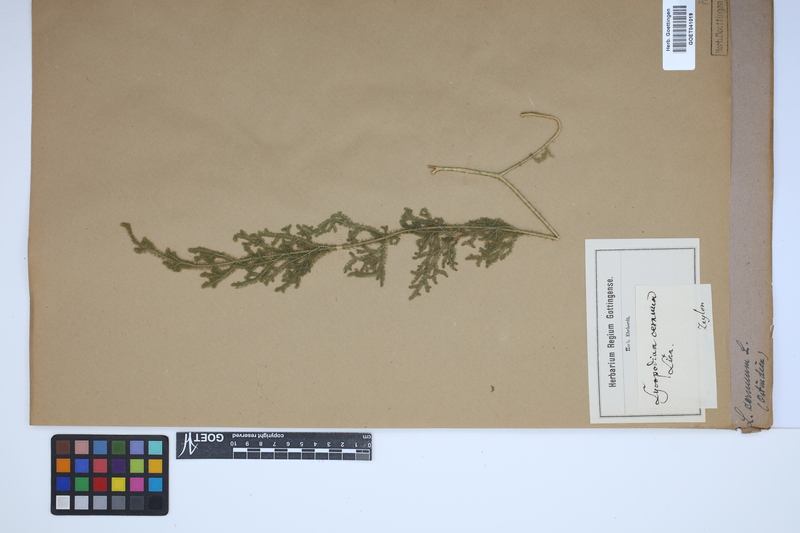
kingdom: Plantae
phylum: Tracheophyta
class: Lycopodiopsida
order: Lycopodiales
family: Lycopodiaceae
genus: Palhinhaea
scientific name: Palhinhaea cernua
